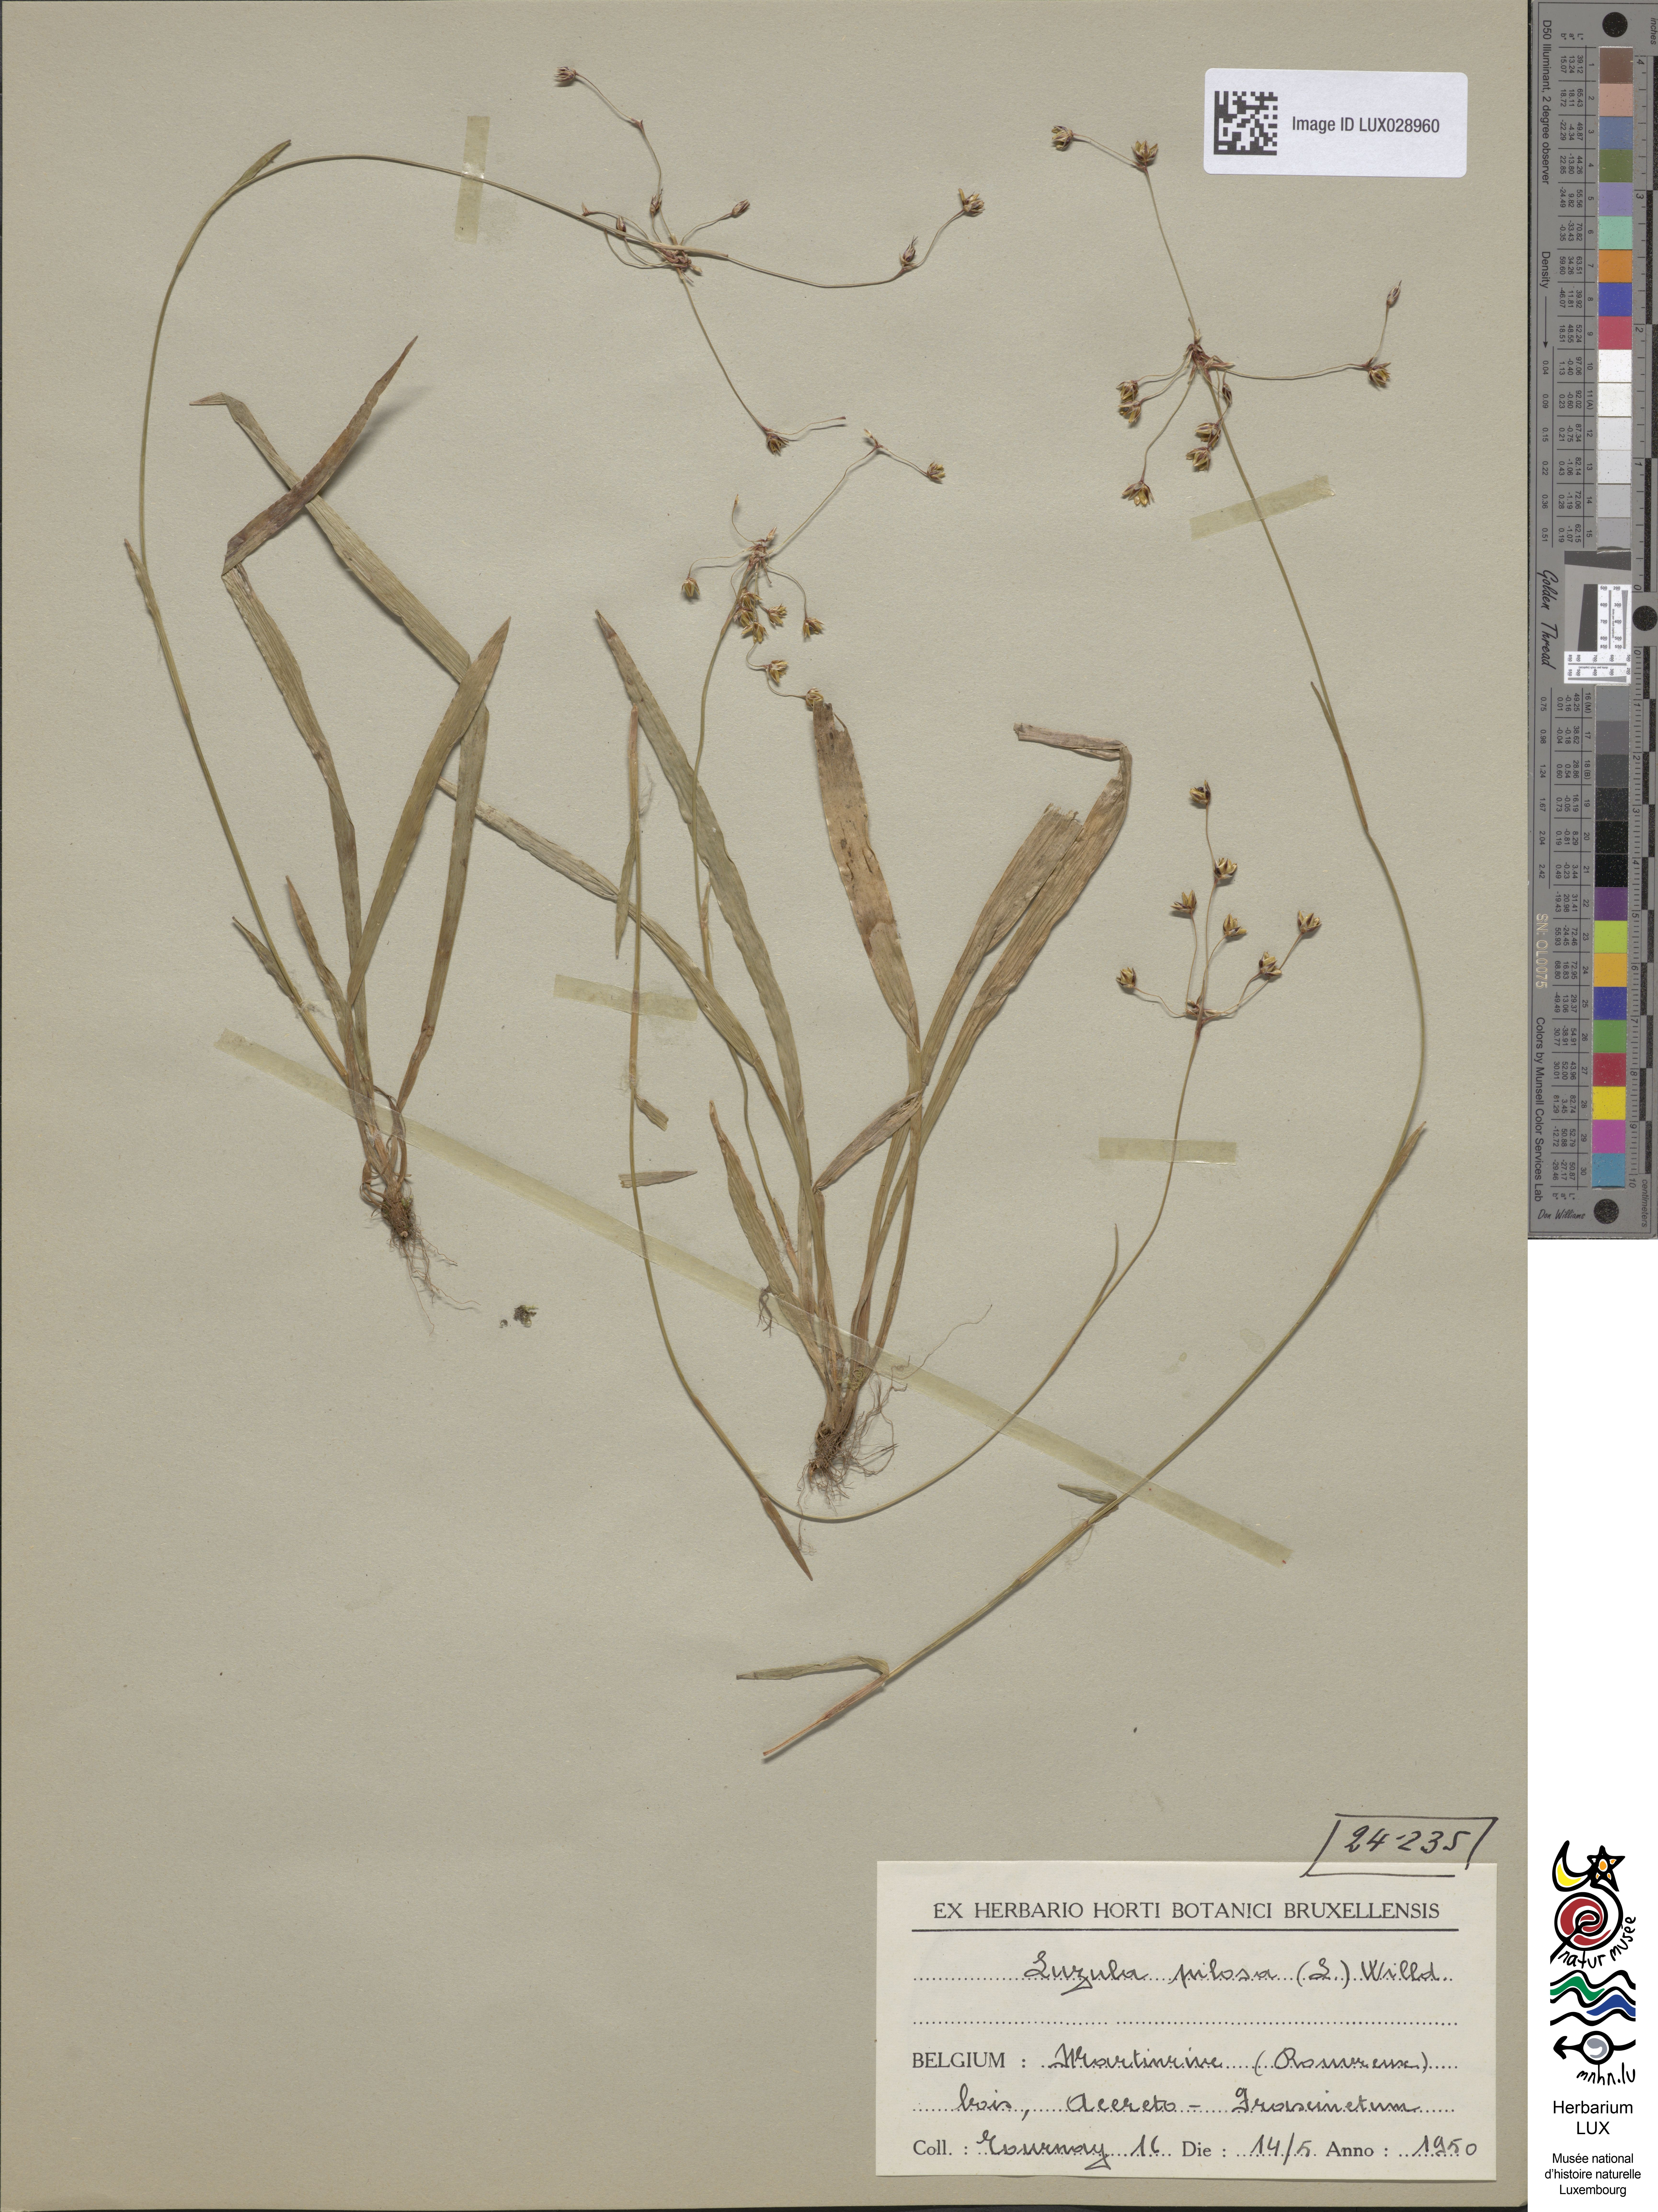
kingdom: Plantae
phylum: Tracheophyta
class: Liliopsida
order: Poales
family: Juncaceae
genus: Luzula
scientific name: Luzula pilosa
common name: Hairy wood-rush
